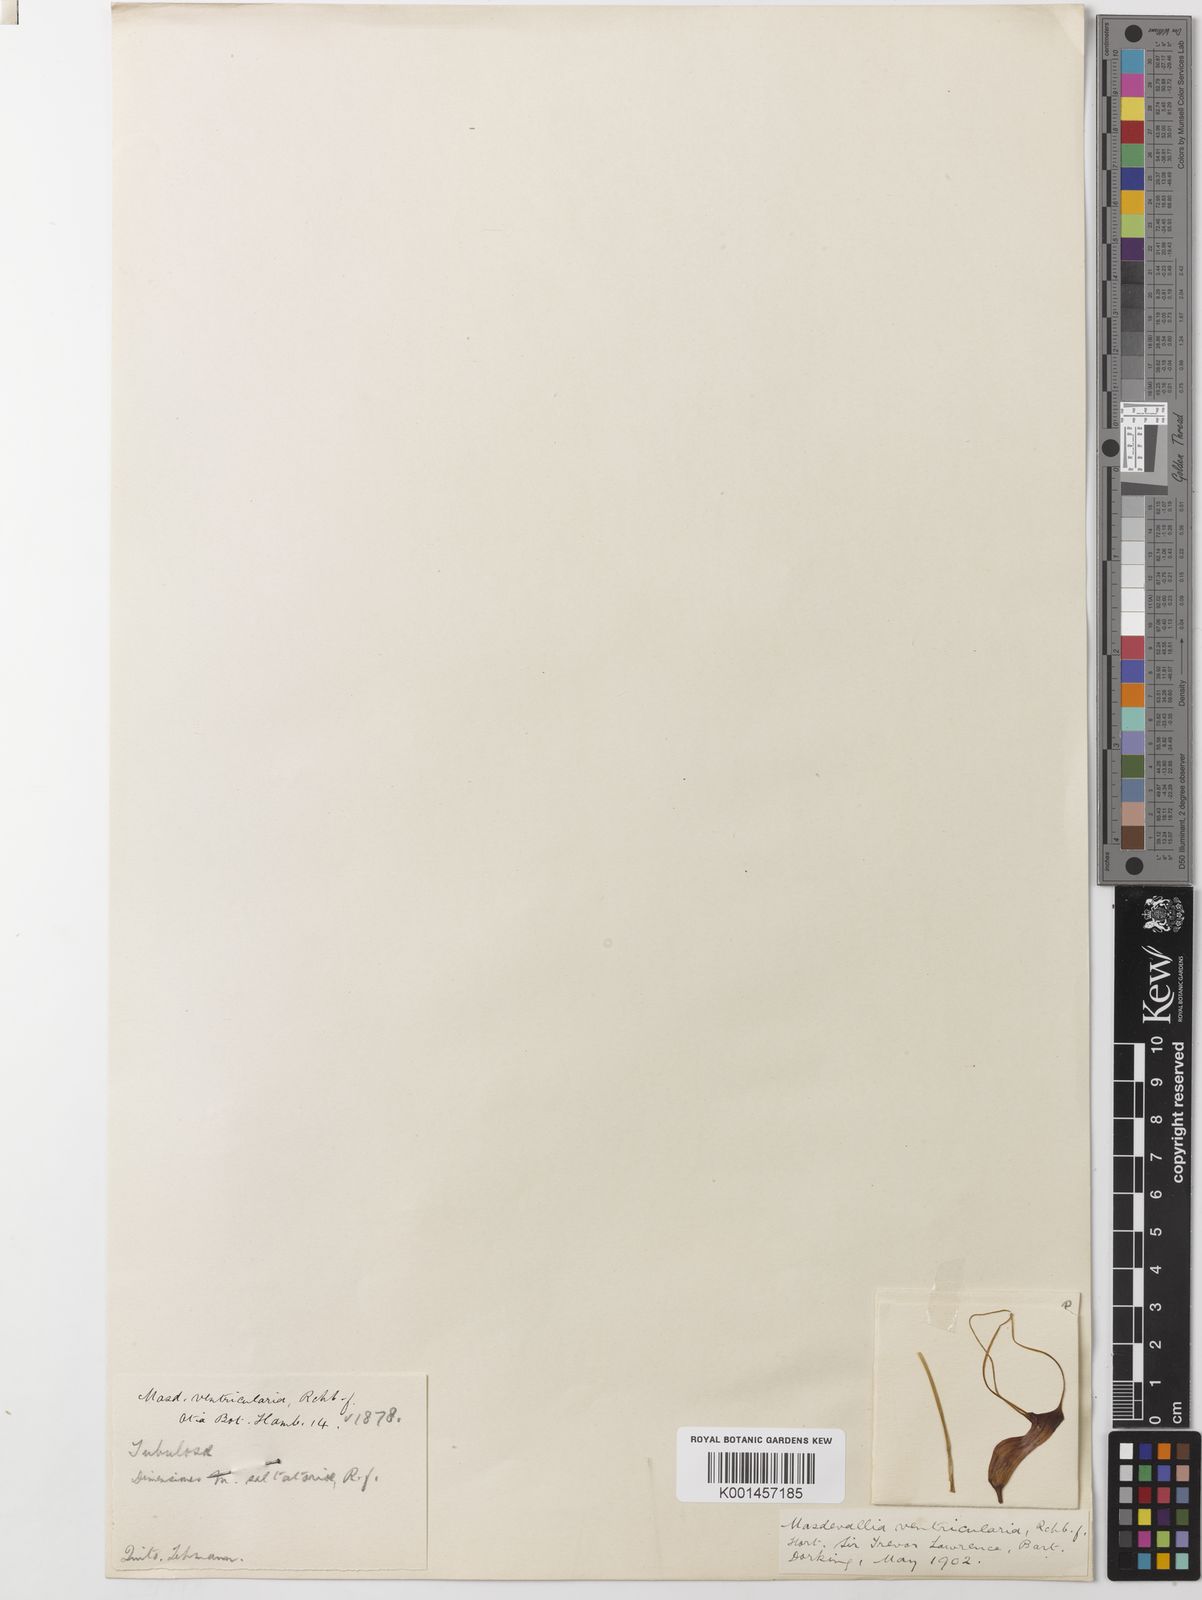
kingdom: Plantae
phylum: Tracheophyta
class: Liliopsida
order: Asparagales
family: Orchidaceae
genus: Masdevallia
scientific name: Masdevallia ventricularia
